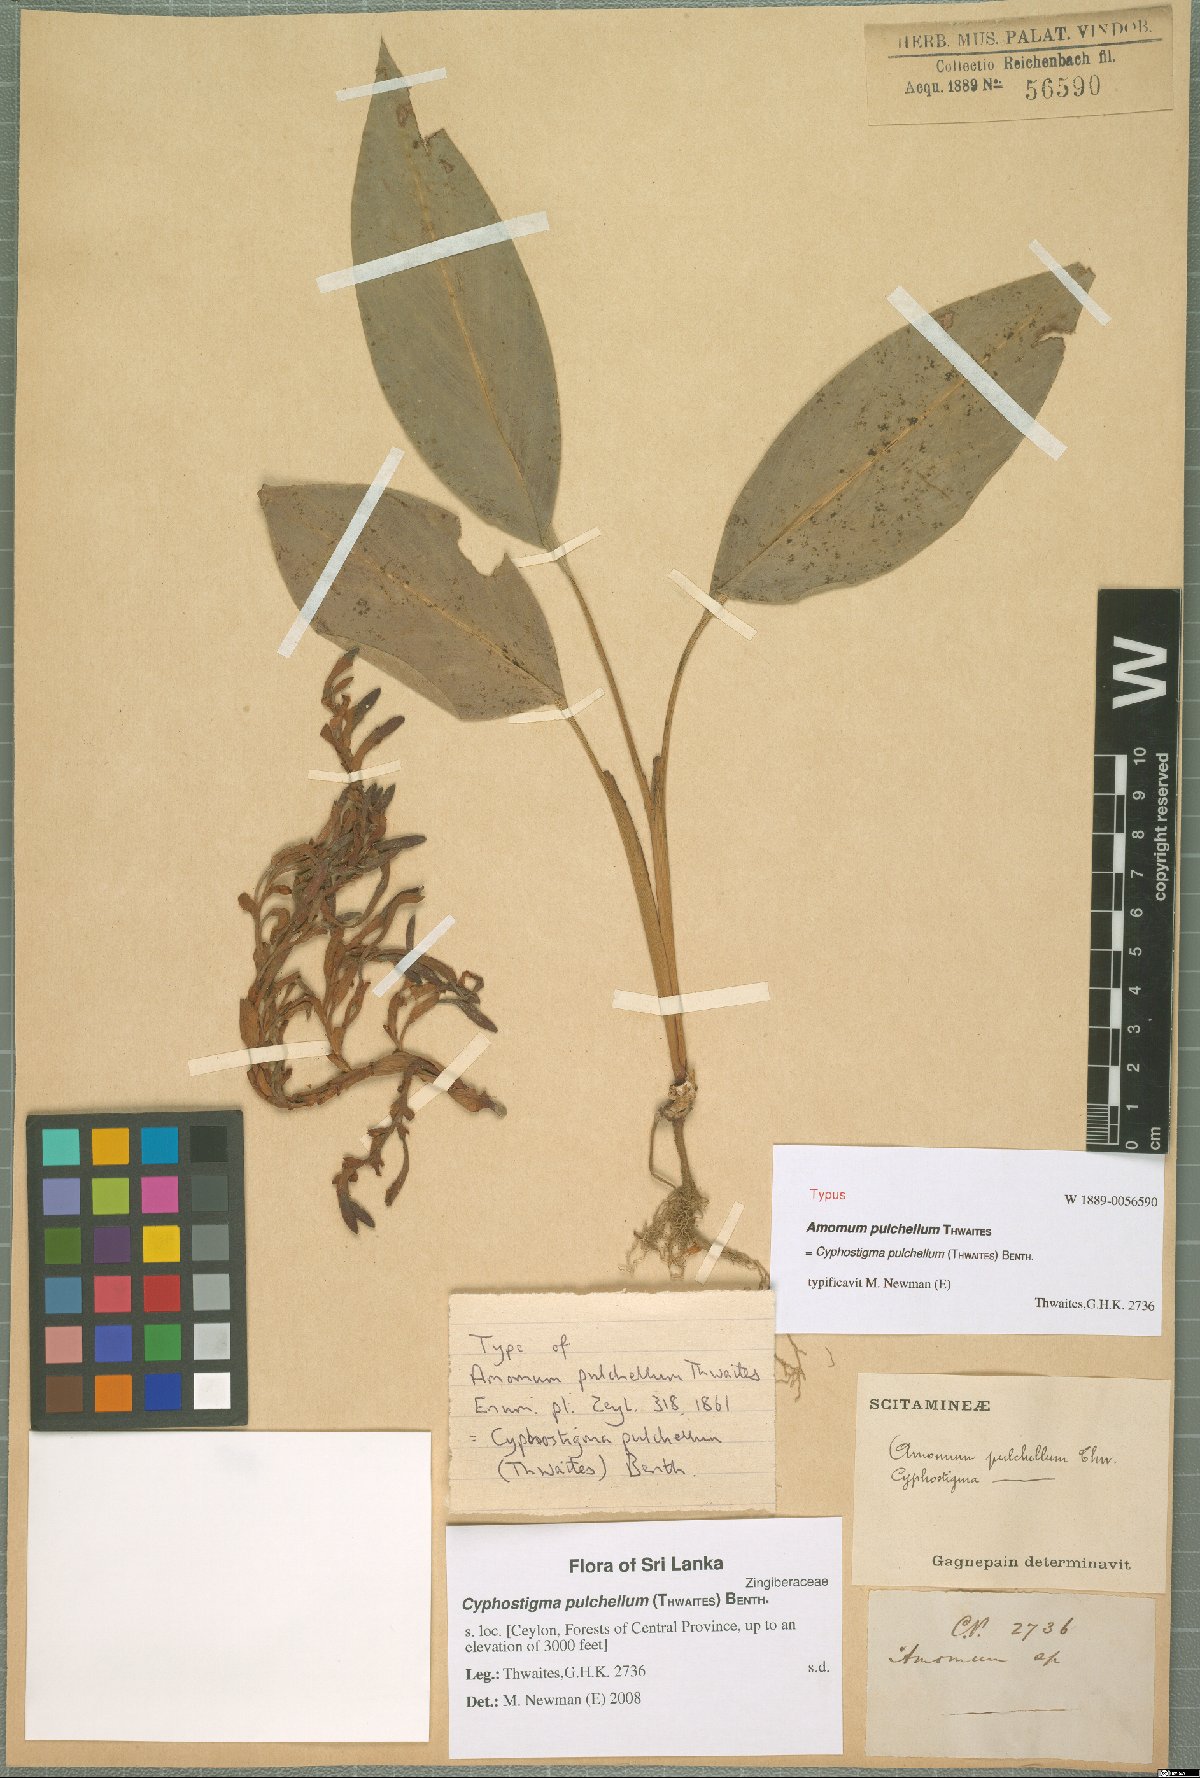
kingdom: Plantae
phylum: Tracheophyta
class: Liliopsida
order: Zingiberales
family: Zingiberaceae
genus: Cyphostigma
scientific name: Cyphostigma pulchellum
